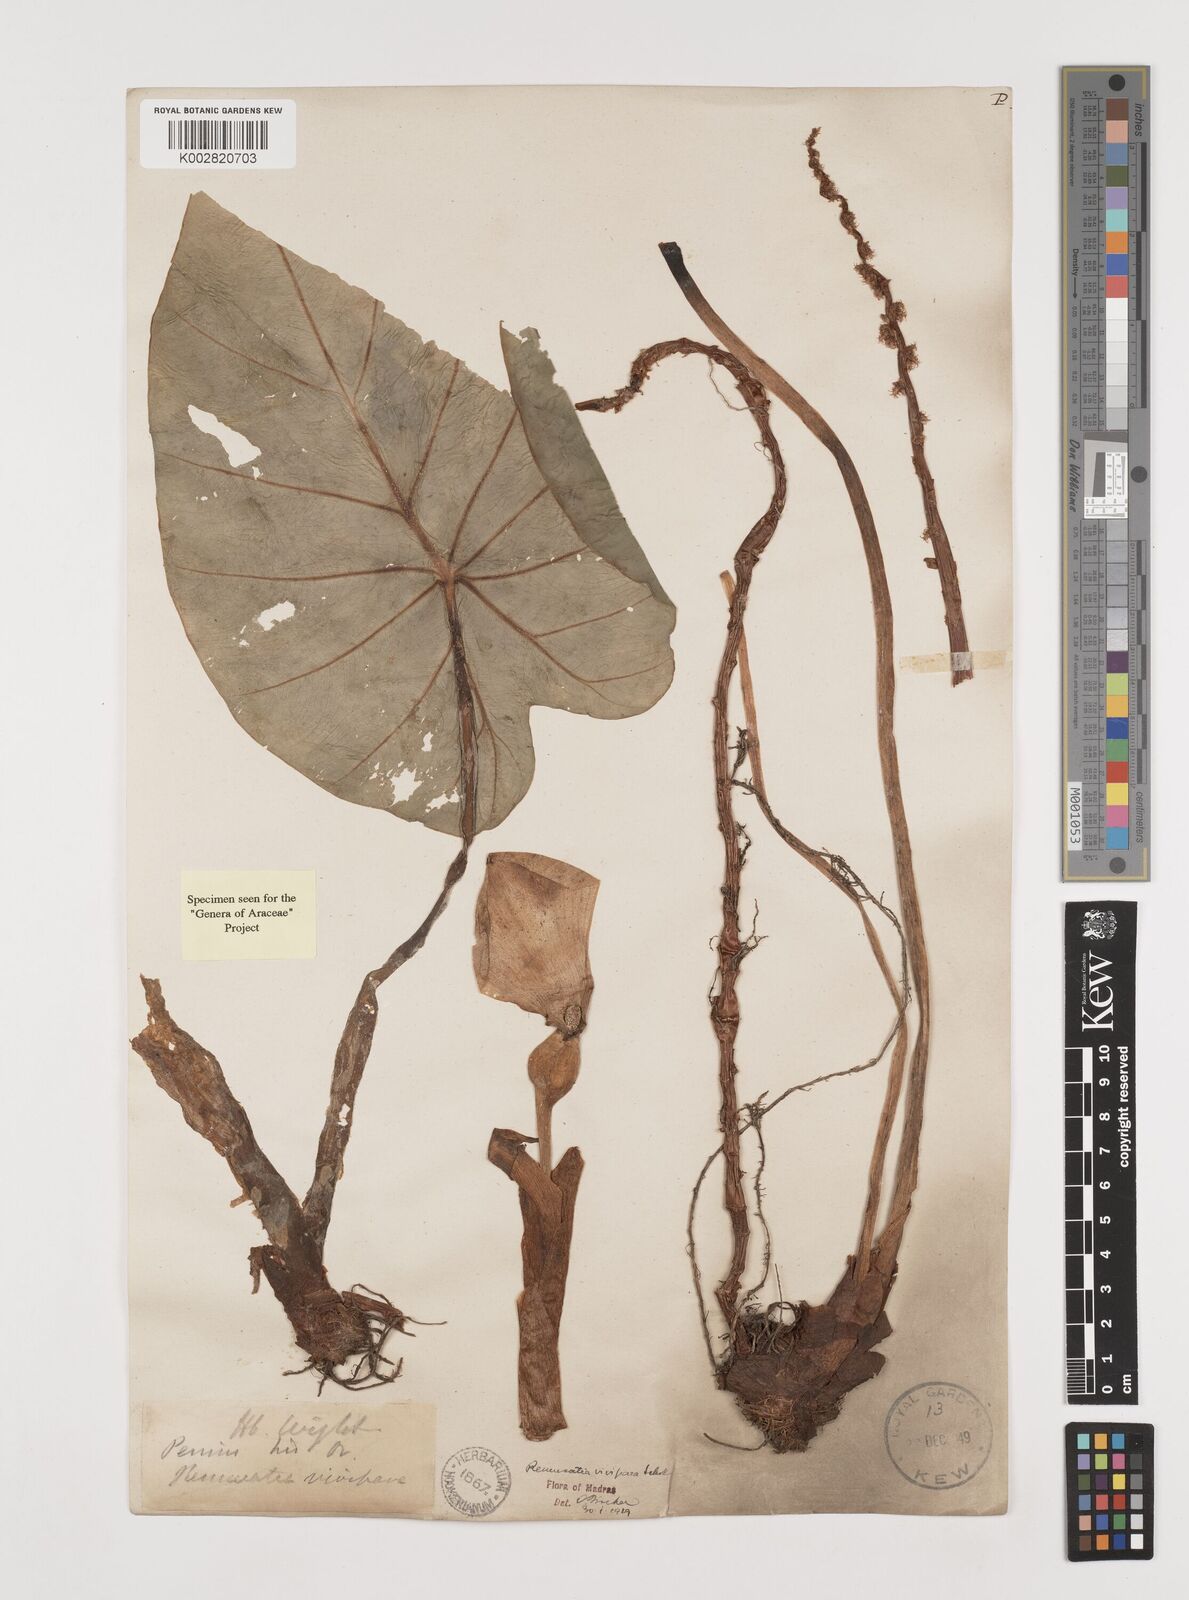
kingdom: Plantae
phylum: Tracheophyta
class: Liliopsida
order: Alismatales
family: Araceae
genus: Remusatia
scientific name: Remusatia vivipara
